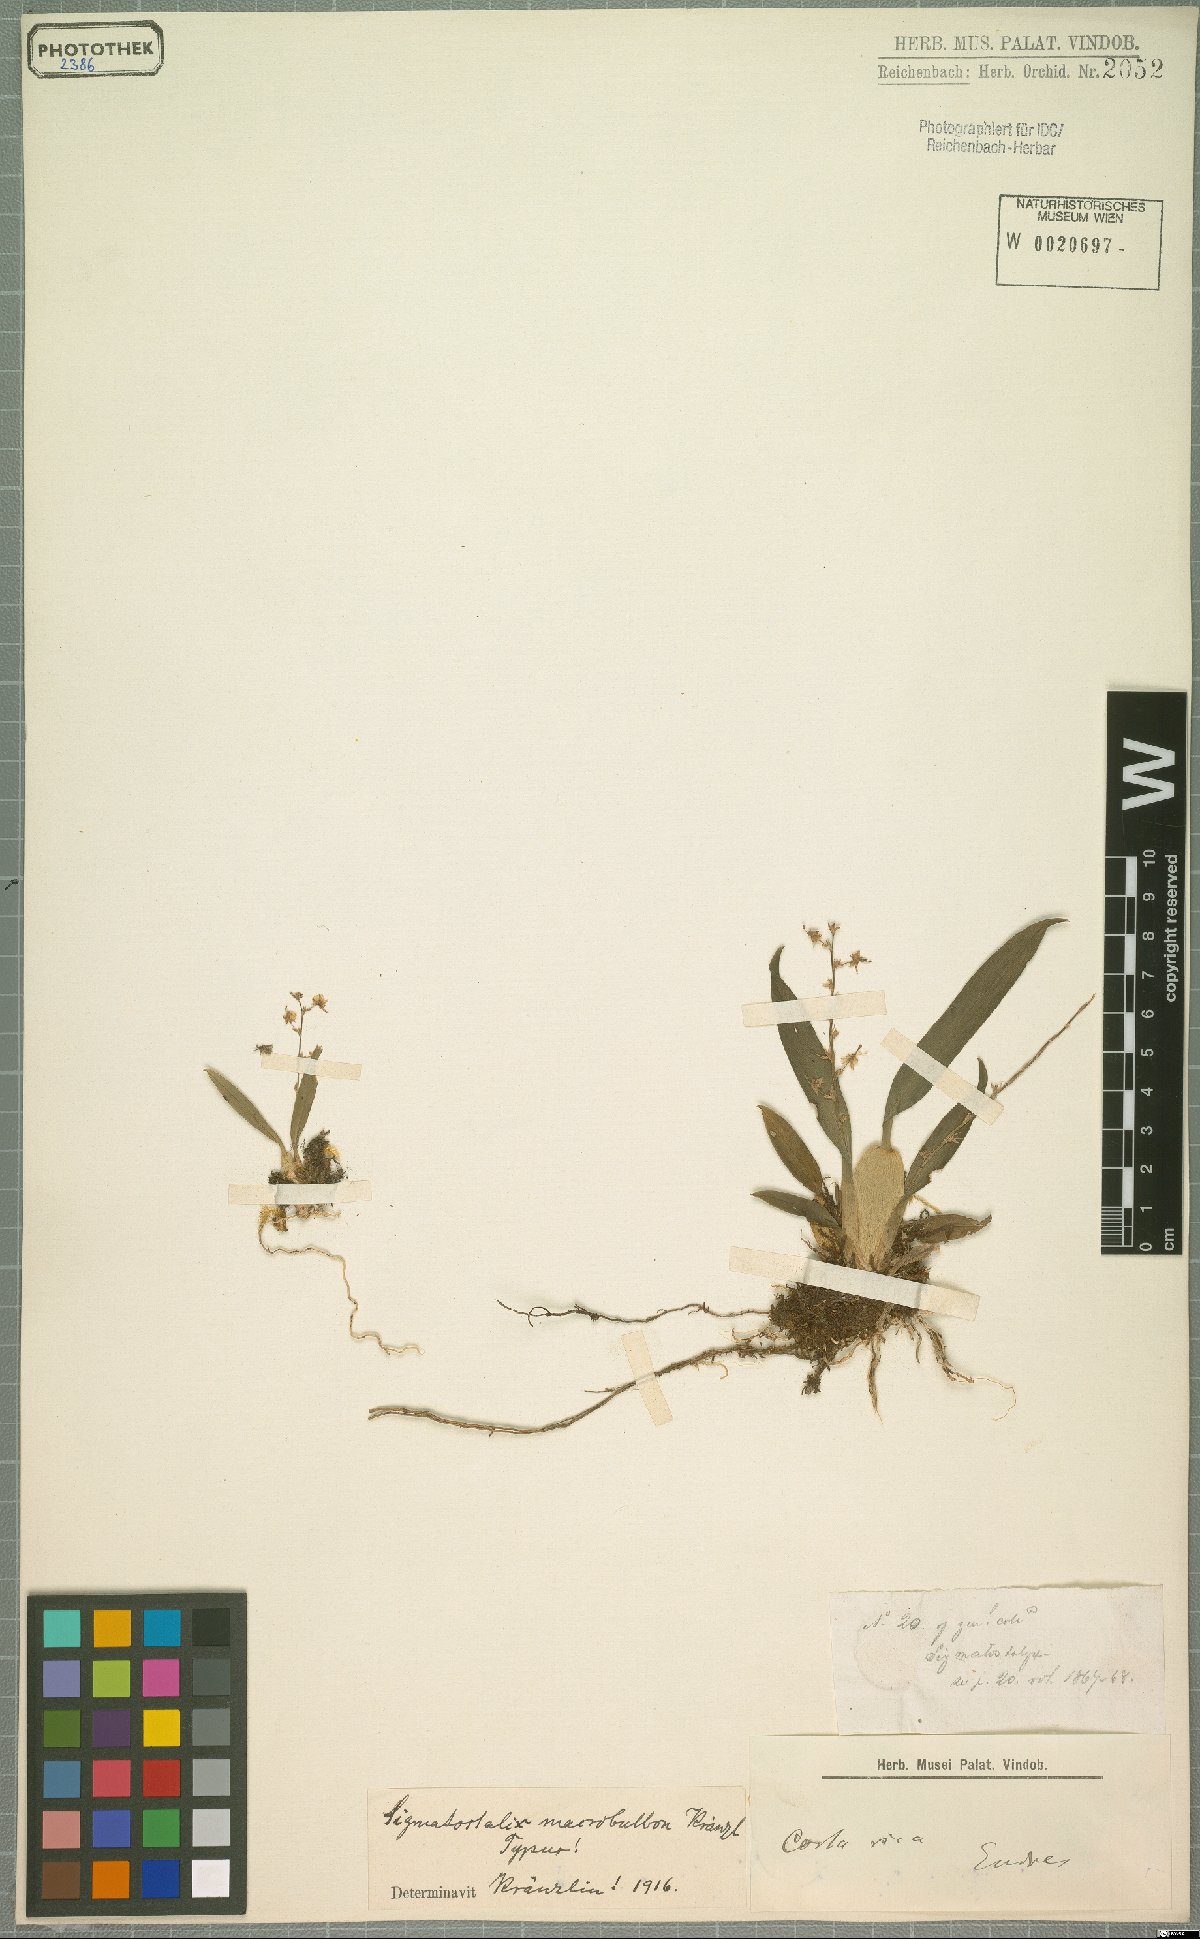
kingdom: Plantae
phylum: Tracheophyta
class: Liliopsida
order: Asparagales
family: Orchidaceae
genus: Oncidium
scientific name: Oncidium macrobulbon
